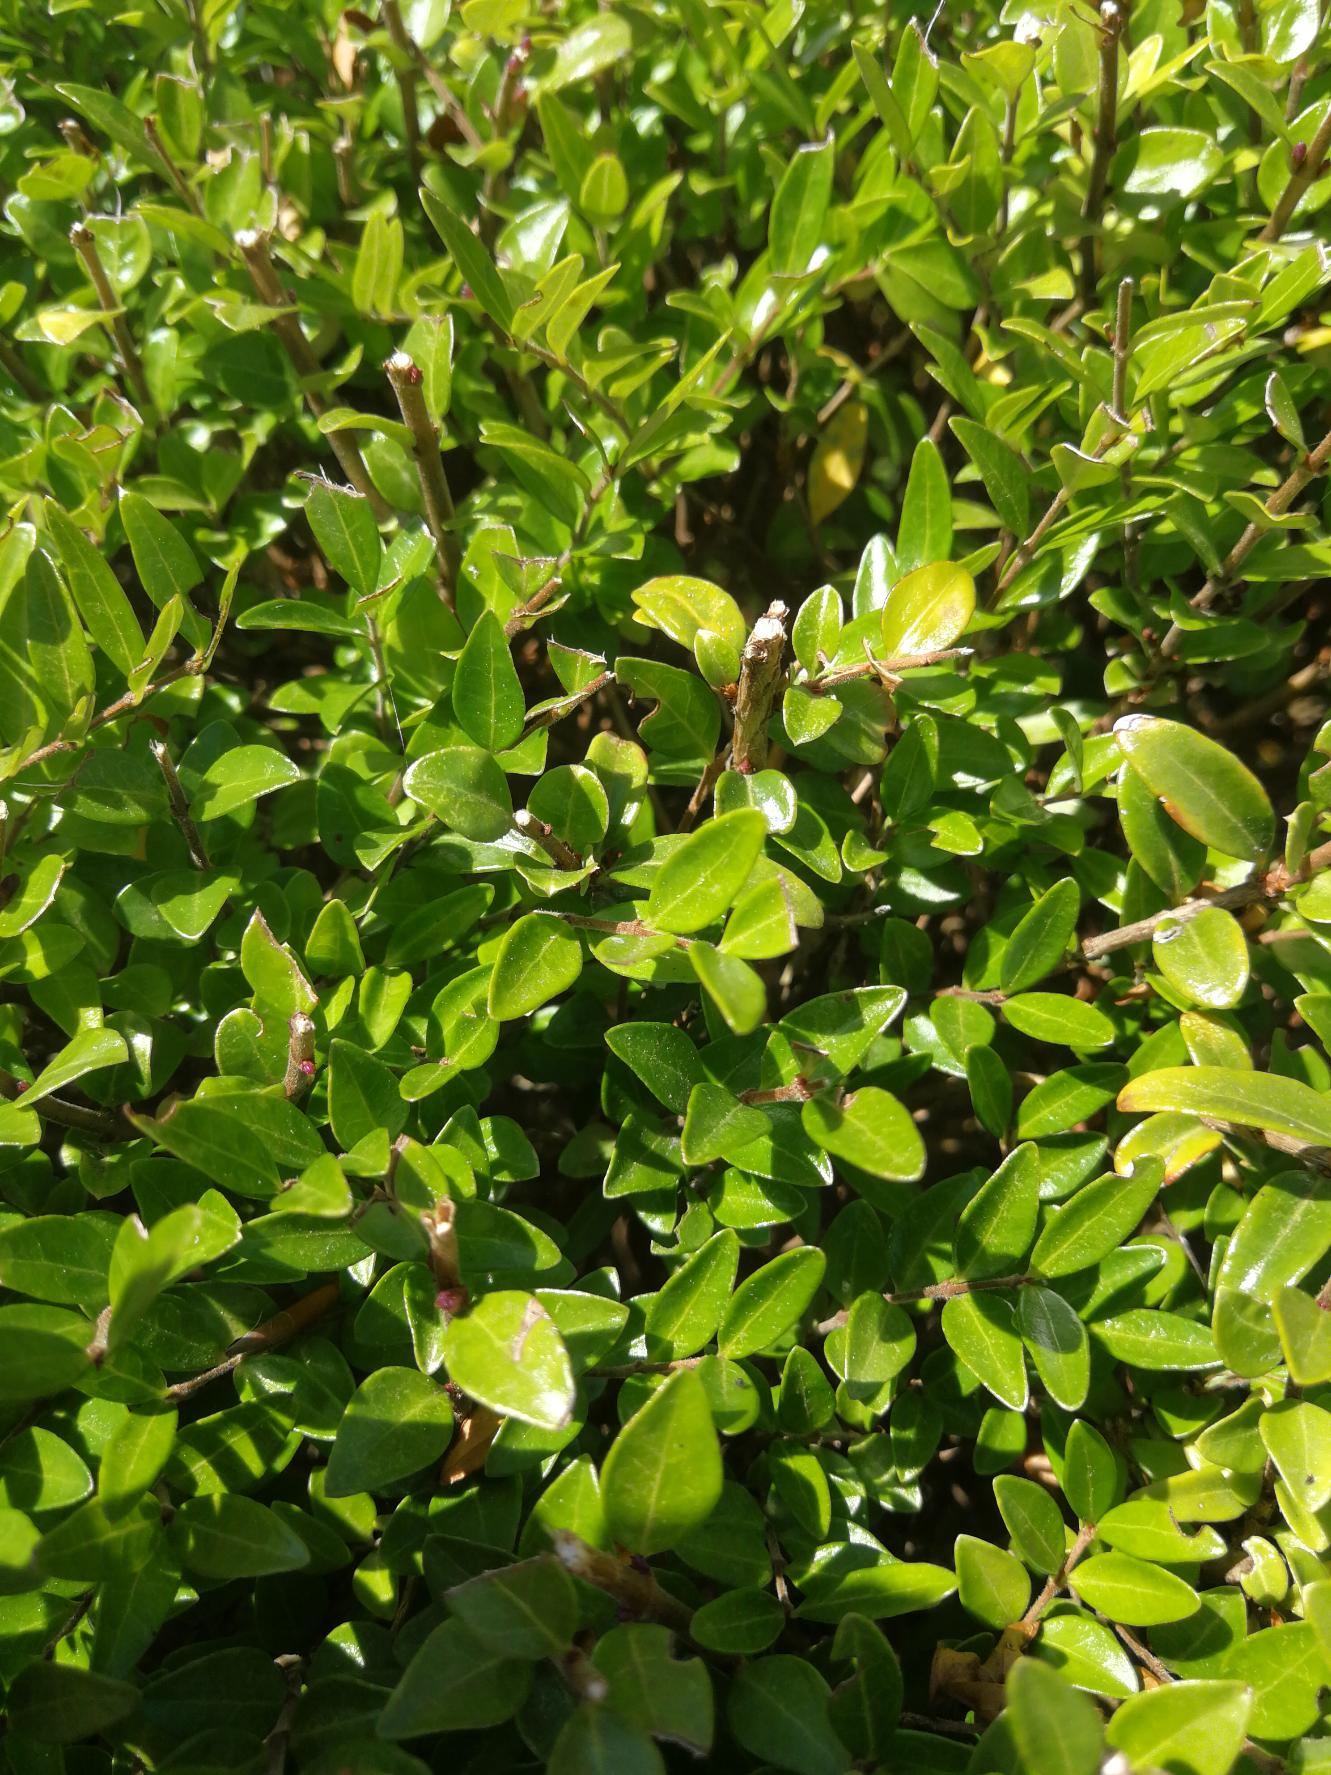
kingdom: Plantae
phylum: Tracheophyta
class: Magnoliopsida
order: Dipsacales
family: Caprifoliaceae
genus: Lonicera
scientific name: Lonicera pileata
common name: Myrte-gedeblad
